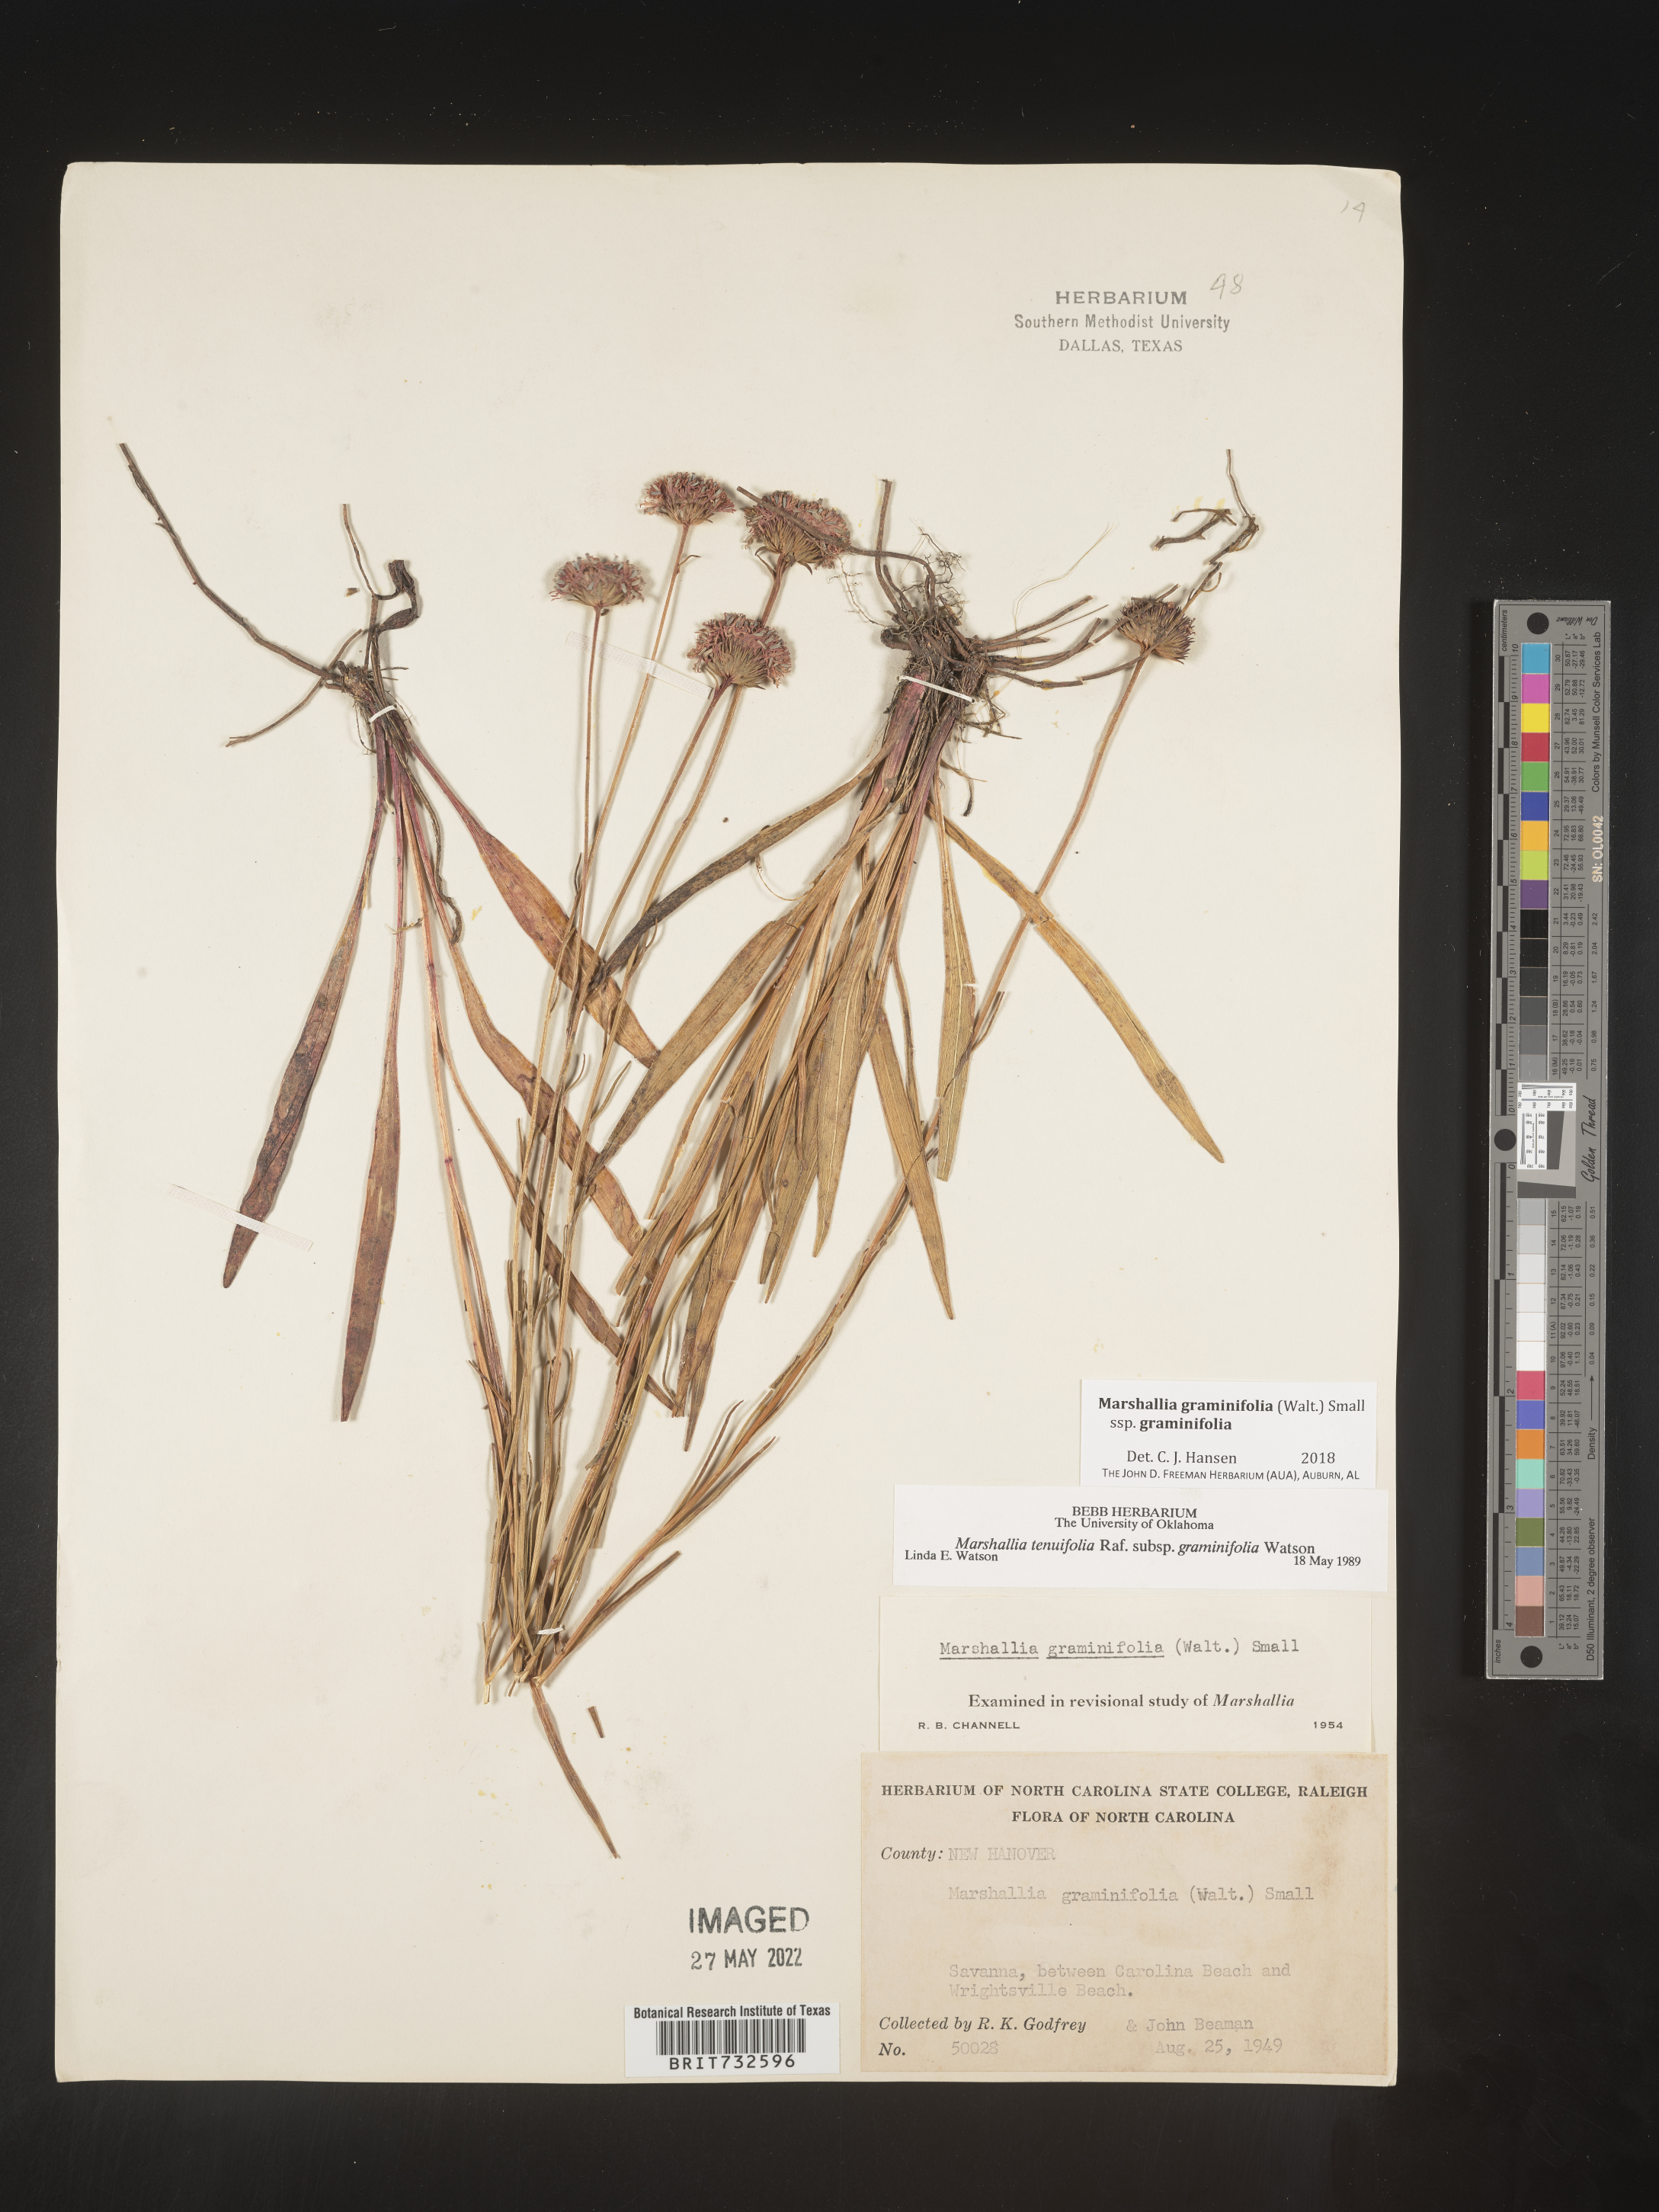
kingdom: Plantae
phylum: Tracheophyta
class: Magnoliopsida
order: Asterales
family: Asteraceae
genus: Marshallia
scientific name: Marshallia graminifolia
